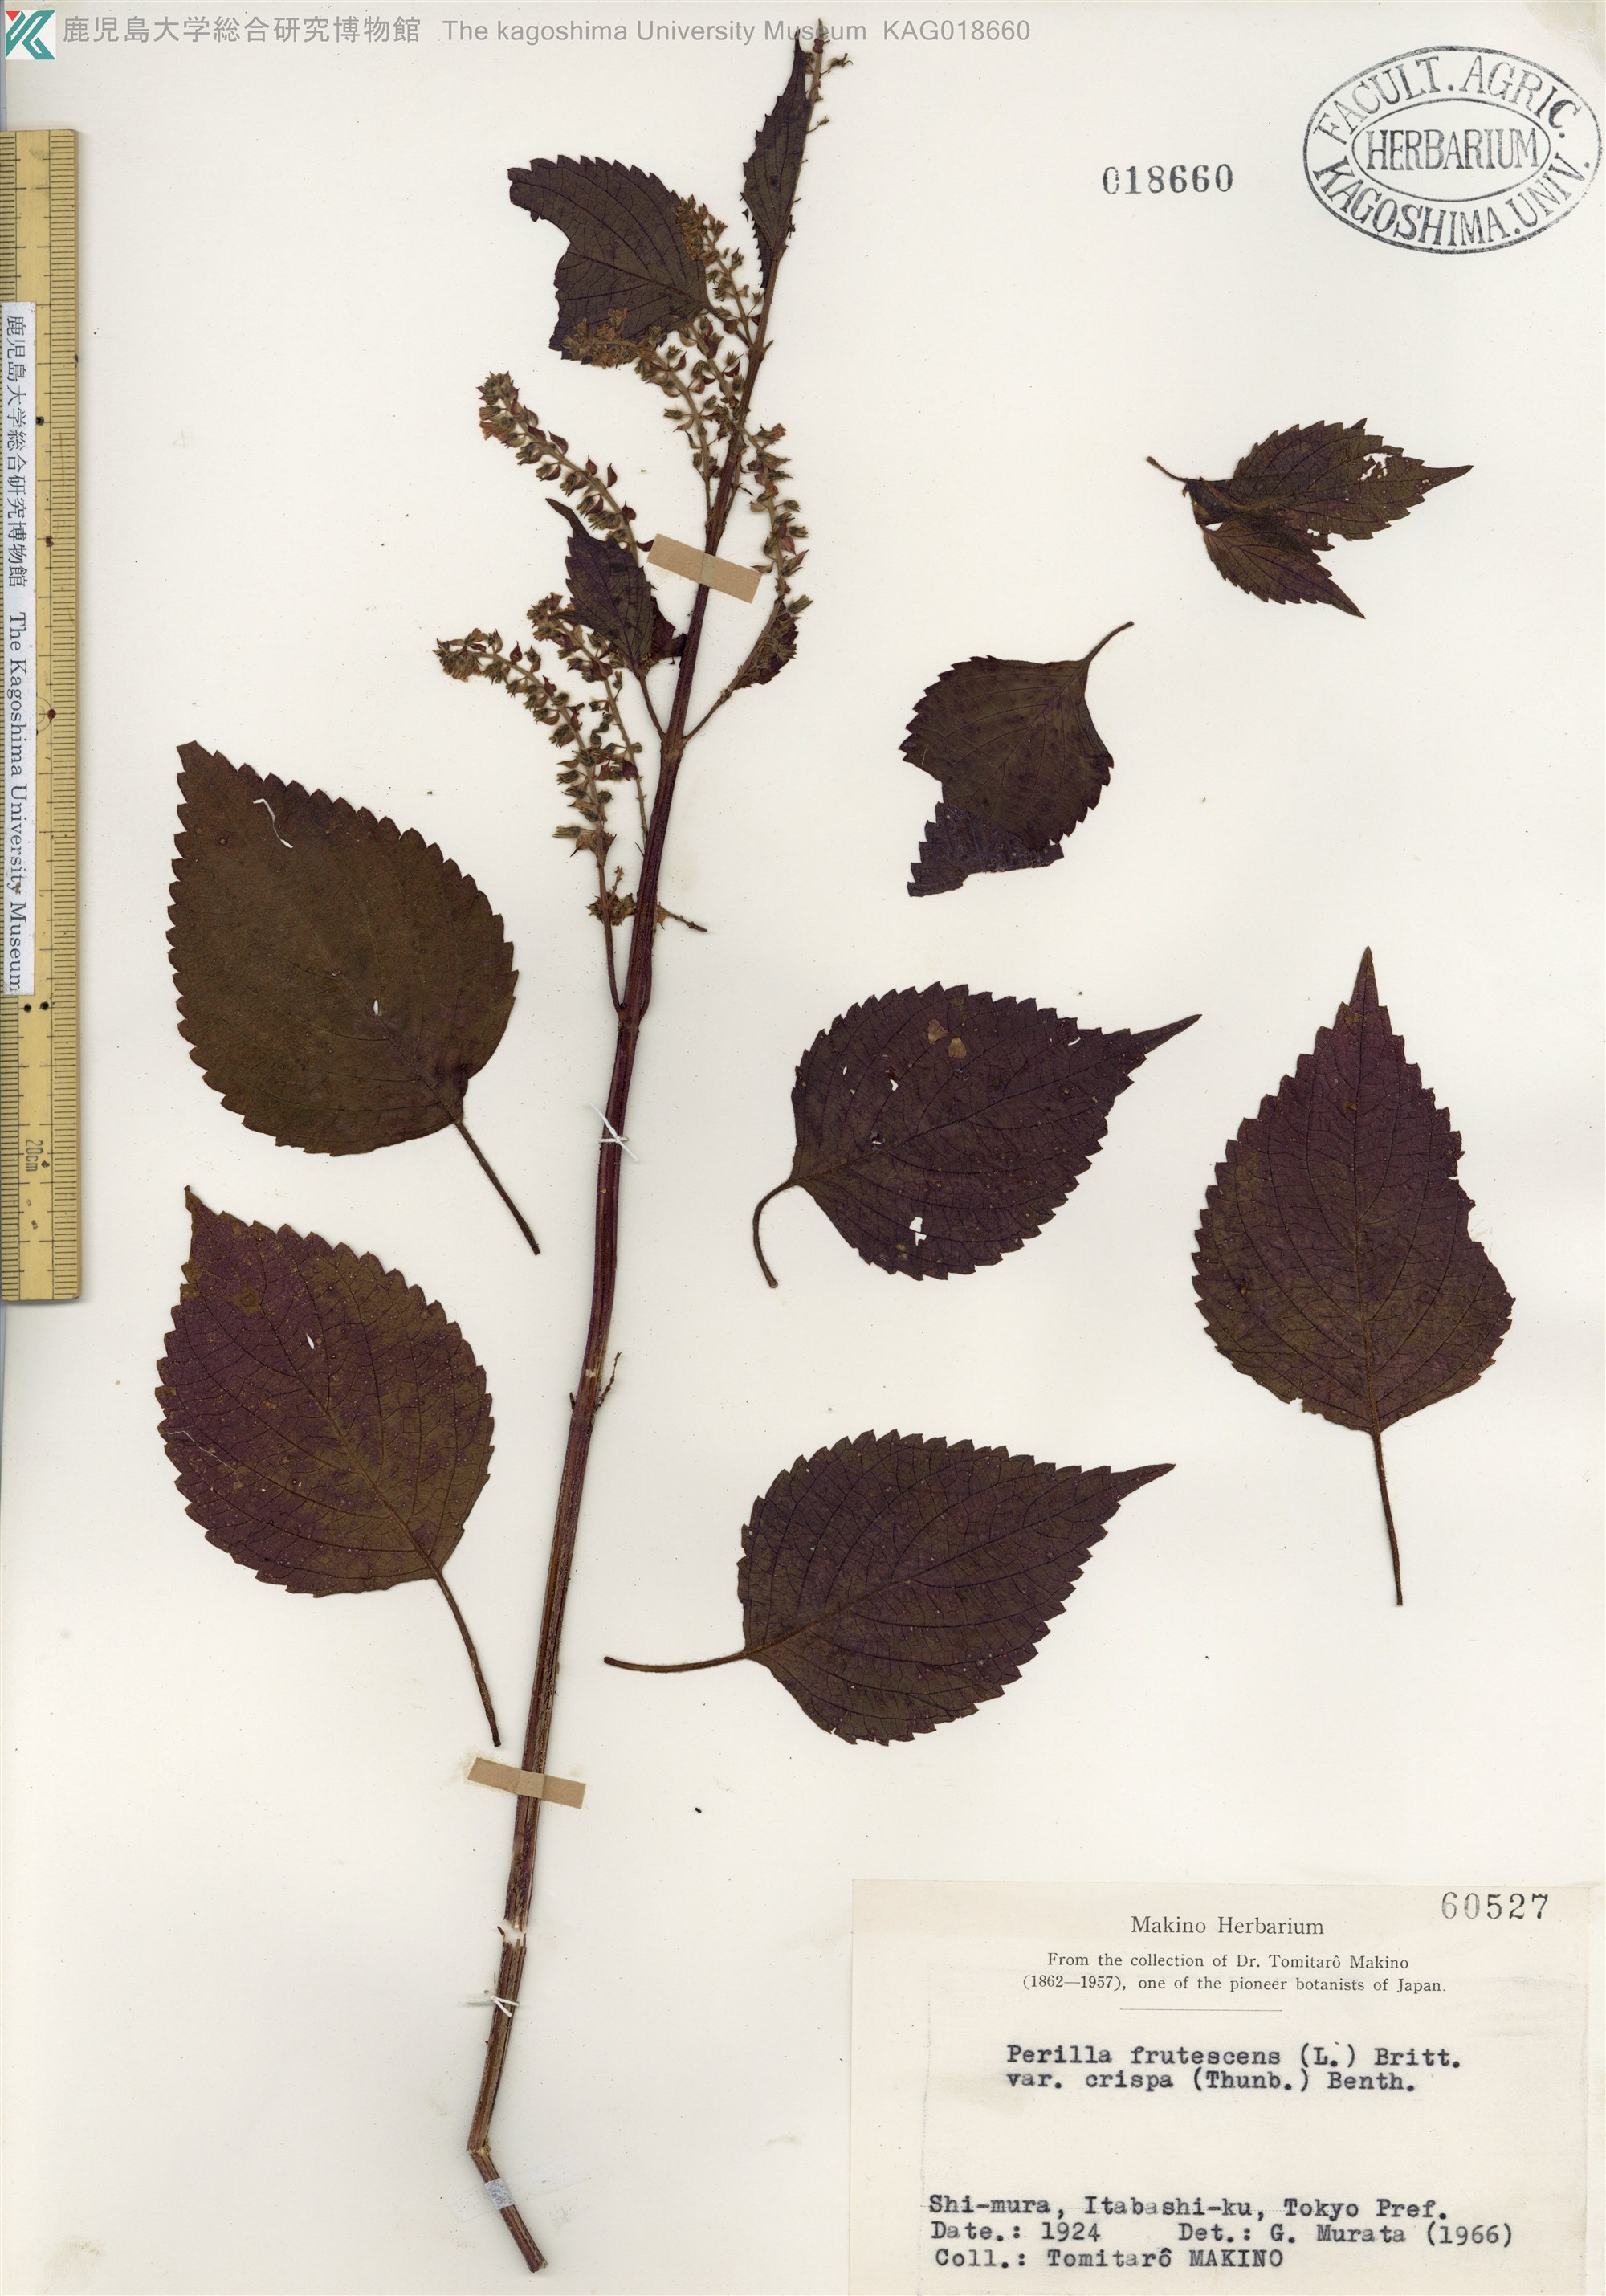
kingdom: Plantae
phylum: Tracheophyta
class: Magnoliopsida
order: Lamiales
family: Lamiaceae
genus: Perilla
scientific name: Perilla frutescens
